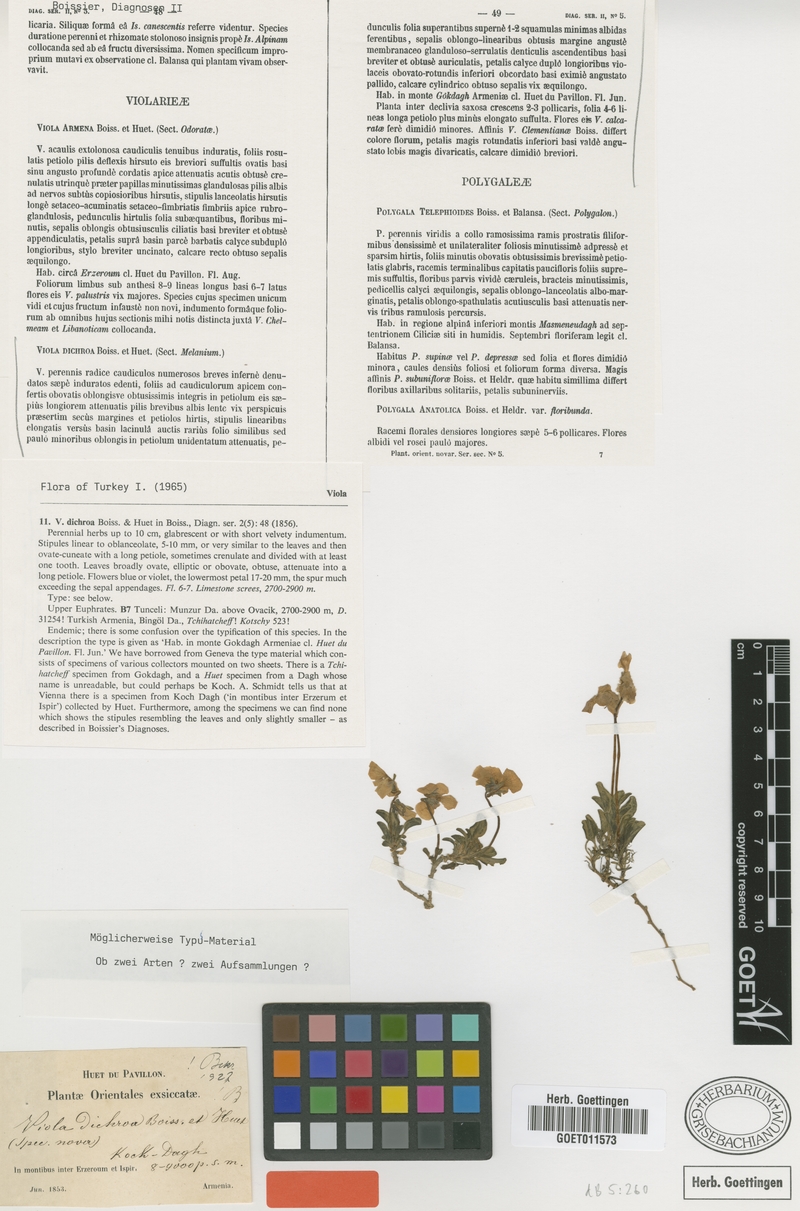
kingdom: Plantae
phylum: Tracheophyta
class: Magnoliopsida
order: Malpighiales
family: Violaceae
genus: Viola
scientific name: Viola dichroa
